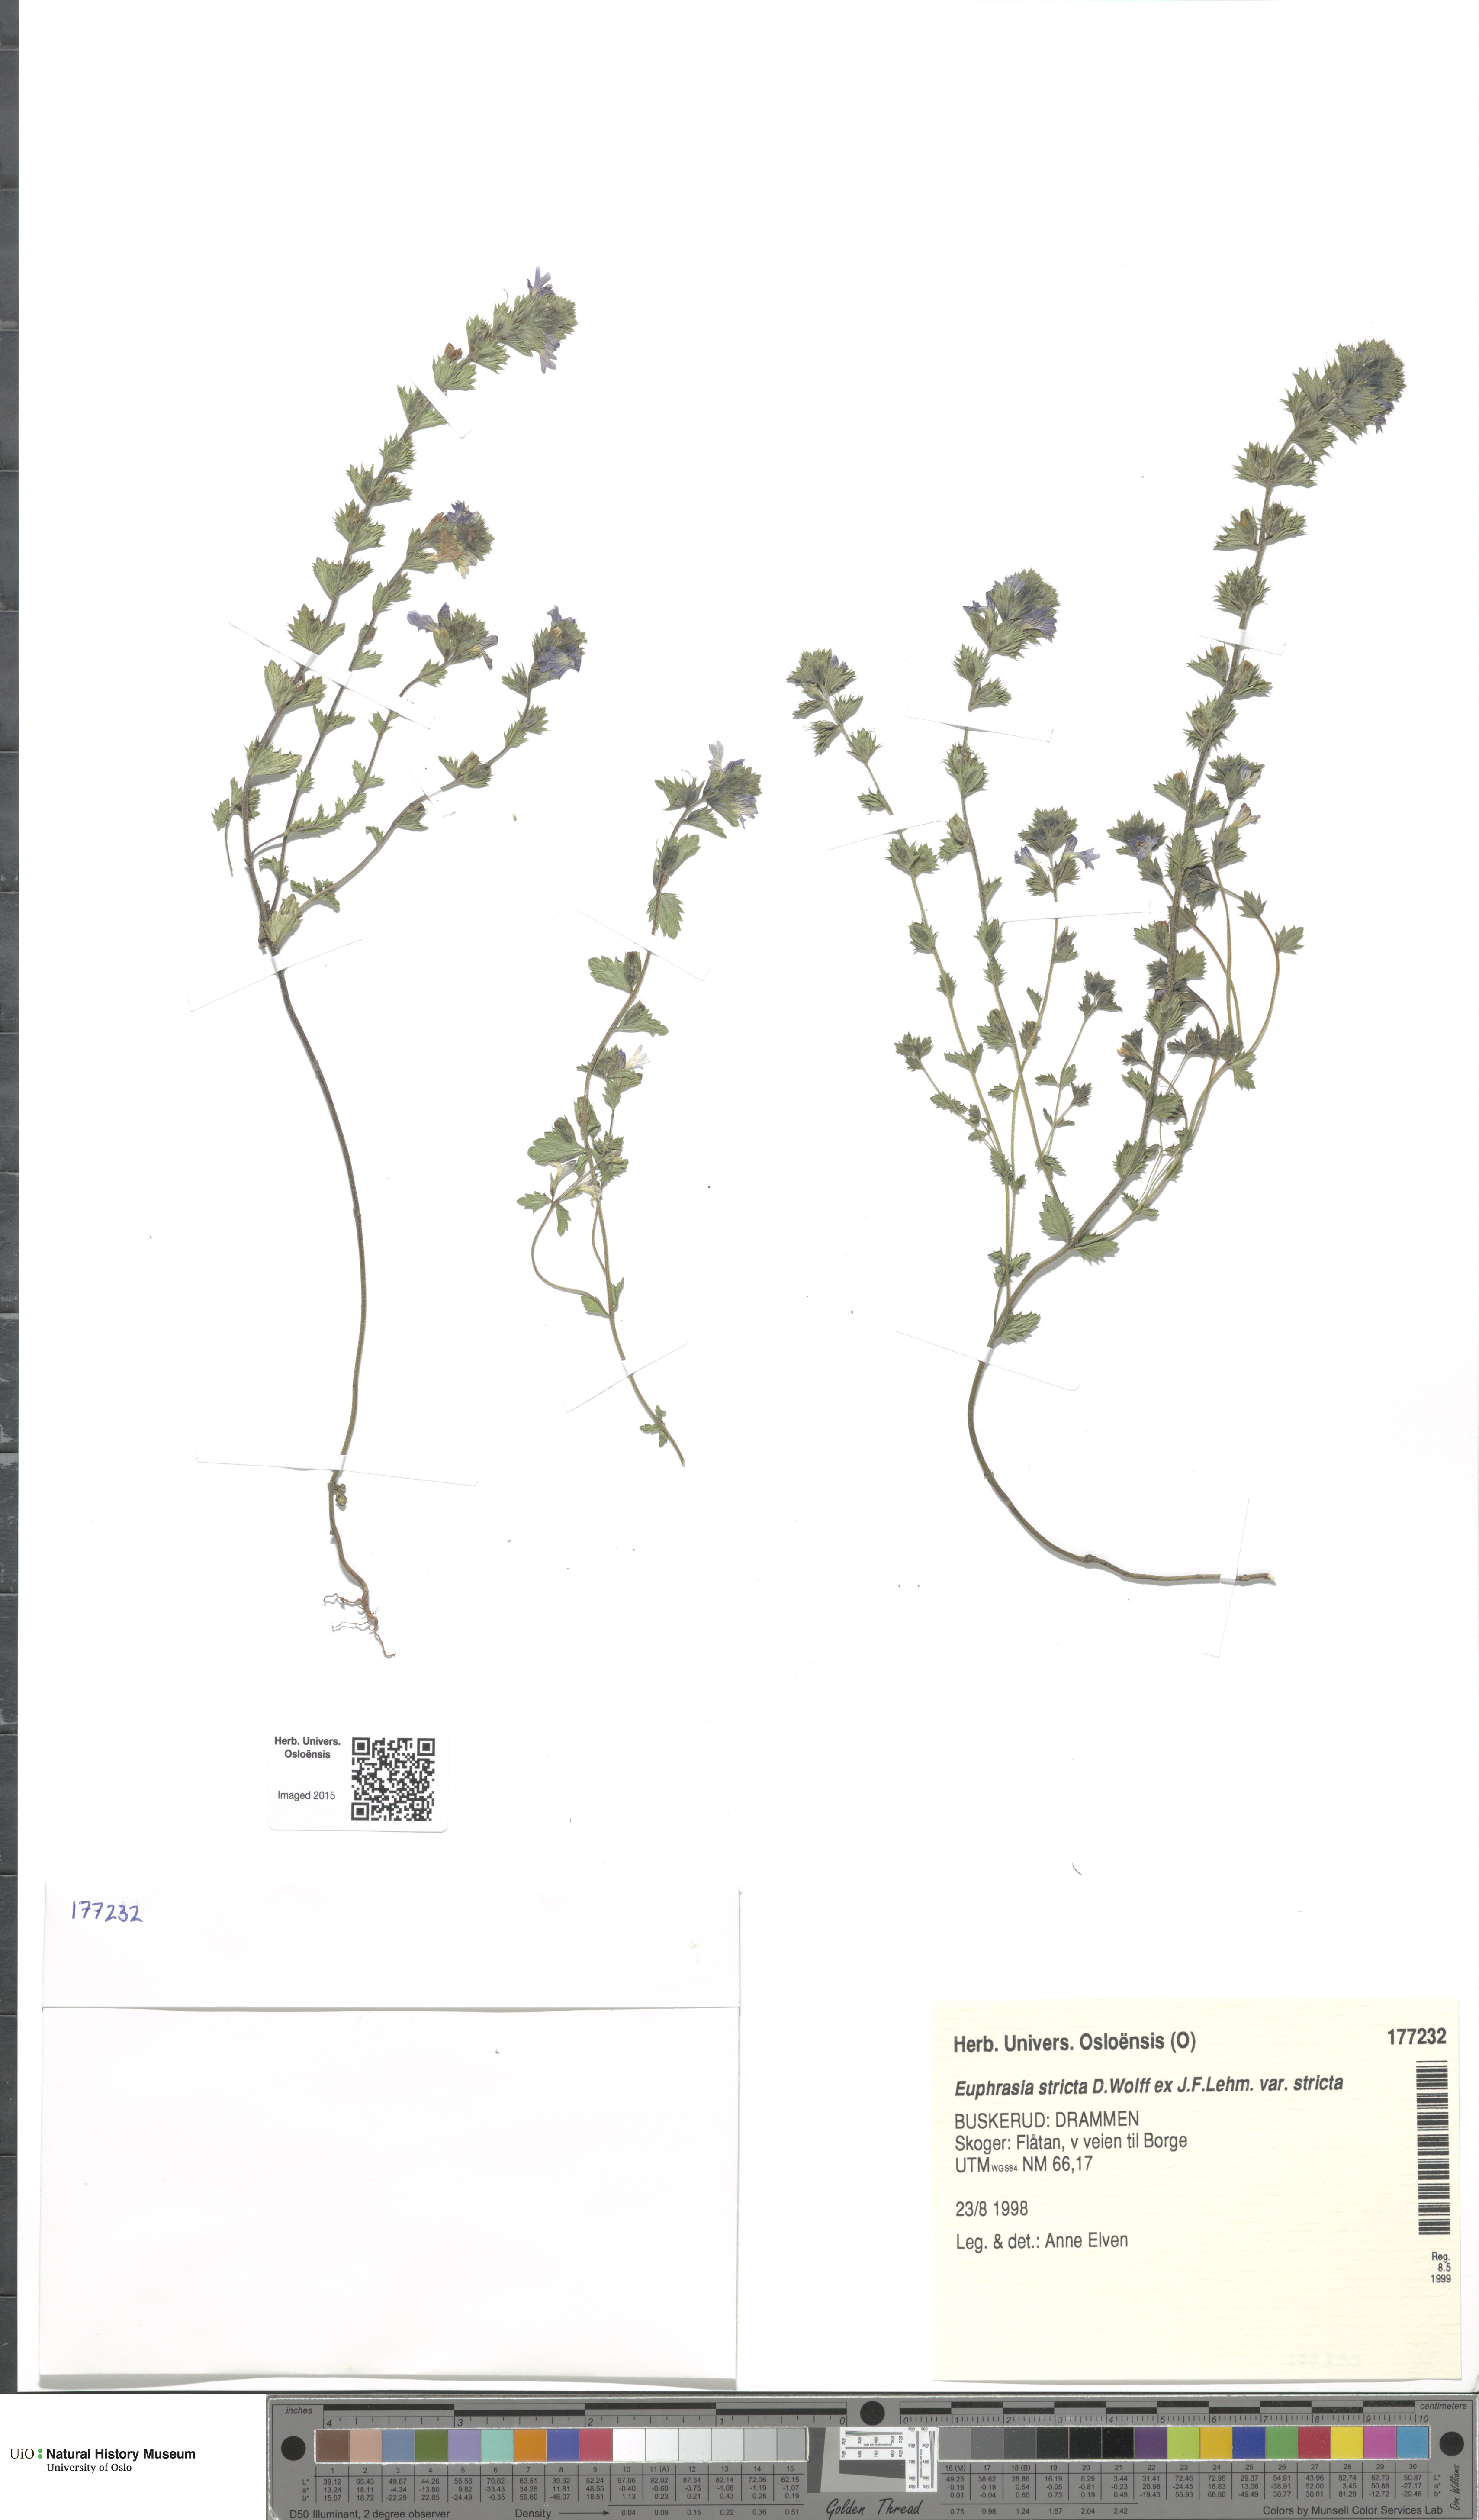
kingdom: Plantae
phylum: Tracheophyta
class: Magnoliopsida
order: Lamiales
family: Orobanchaceae
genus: Euphrasia
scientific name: Euphrasia stricta
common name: Drug eyebright
